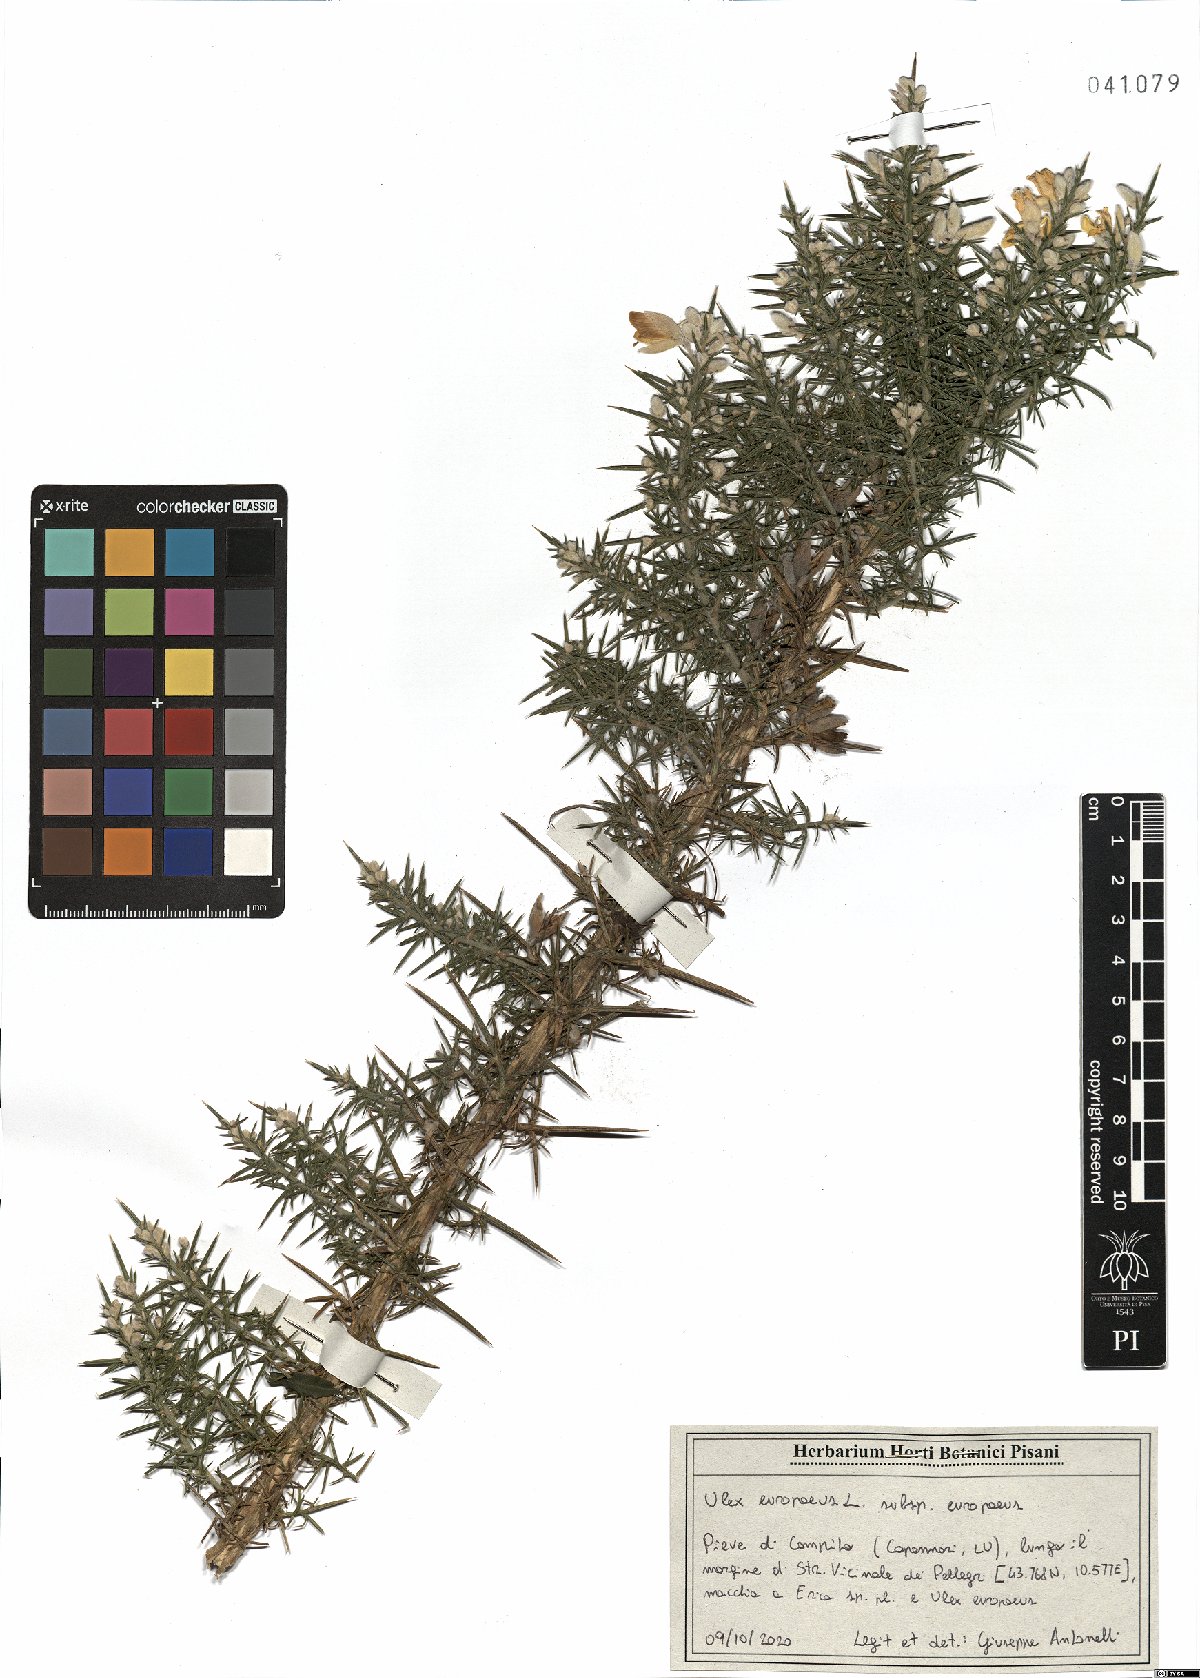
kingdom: Plantae
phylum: Tracheophyta
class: Magnoliopsida
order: Fabales
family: Fabaceae
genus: Ulex
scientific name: Ulex europaeus
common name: Common gorse
